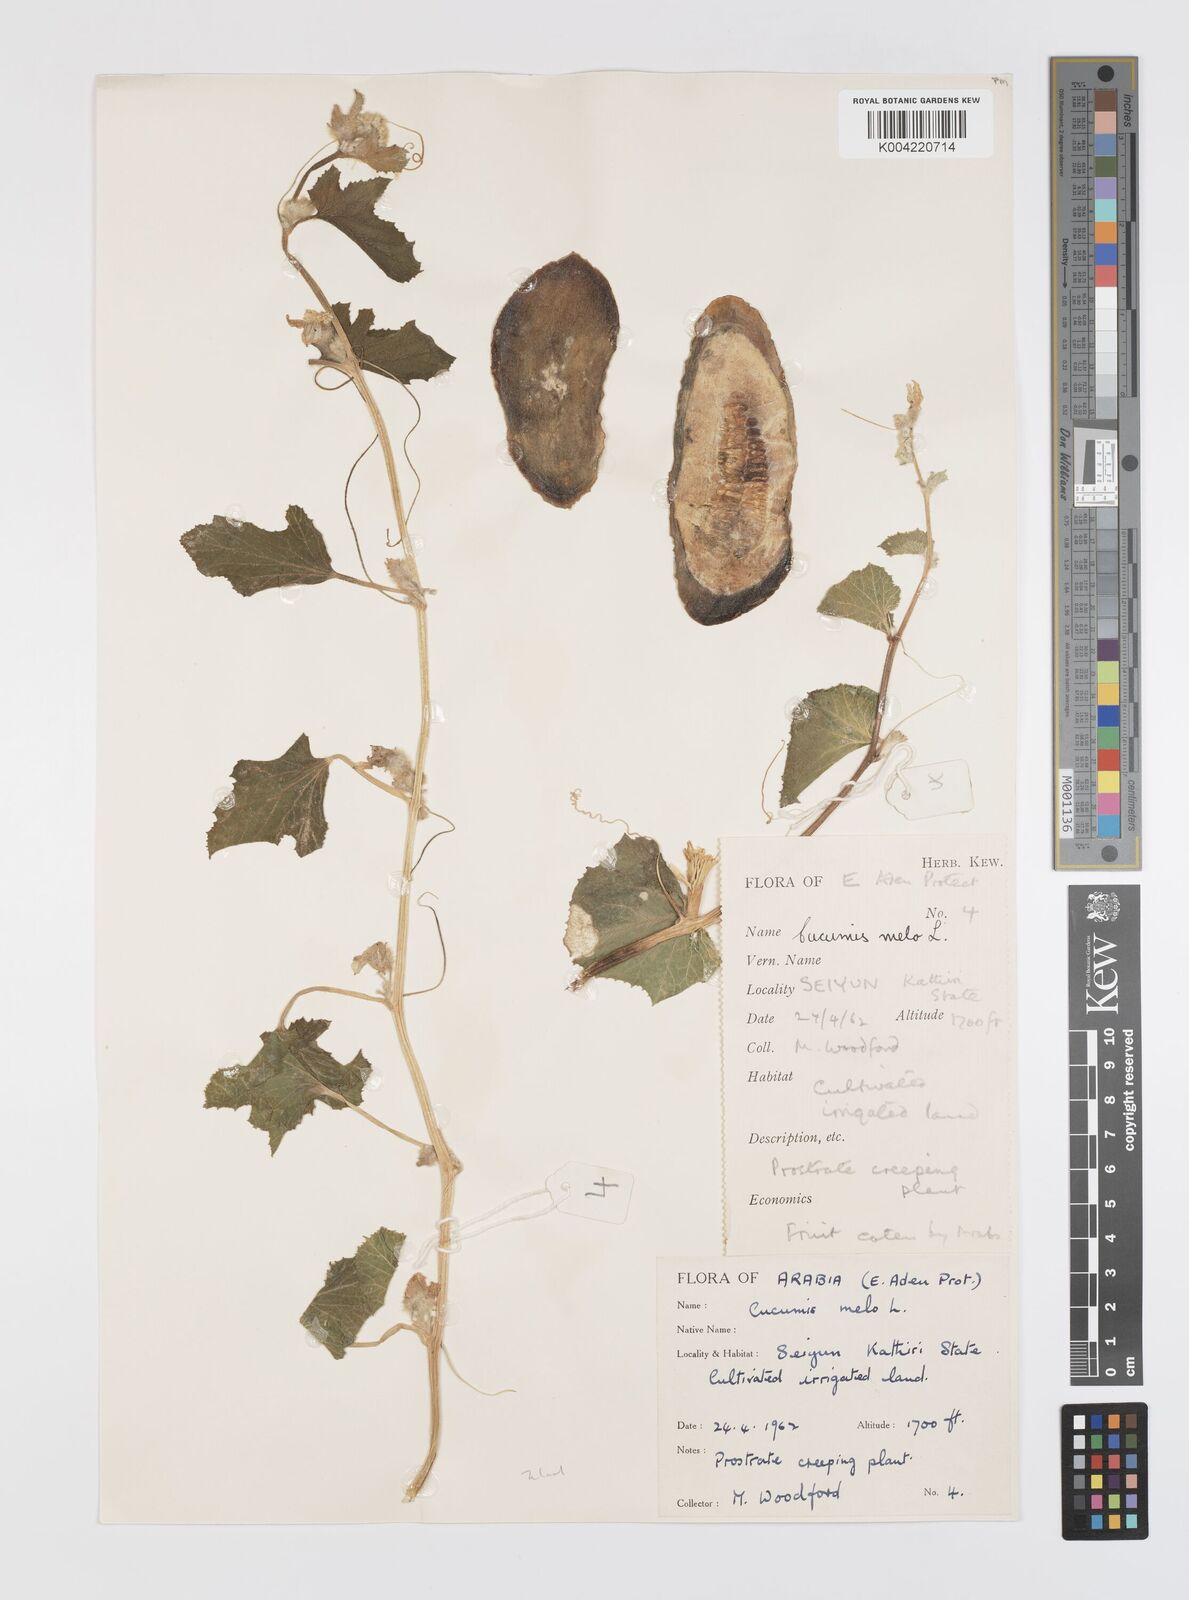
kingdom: Plantae
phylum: Tracheophyta
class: Magnoliopsida
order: Cucurbitales
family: Cucurbitaceae
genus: Cucumis
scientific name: Cucumis melo
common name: Melon
